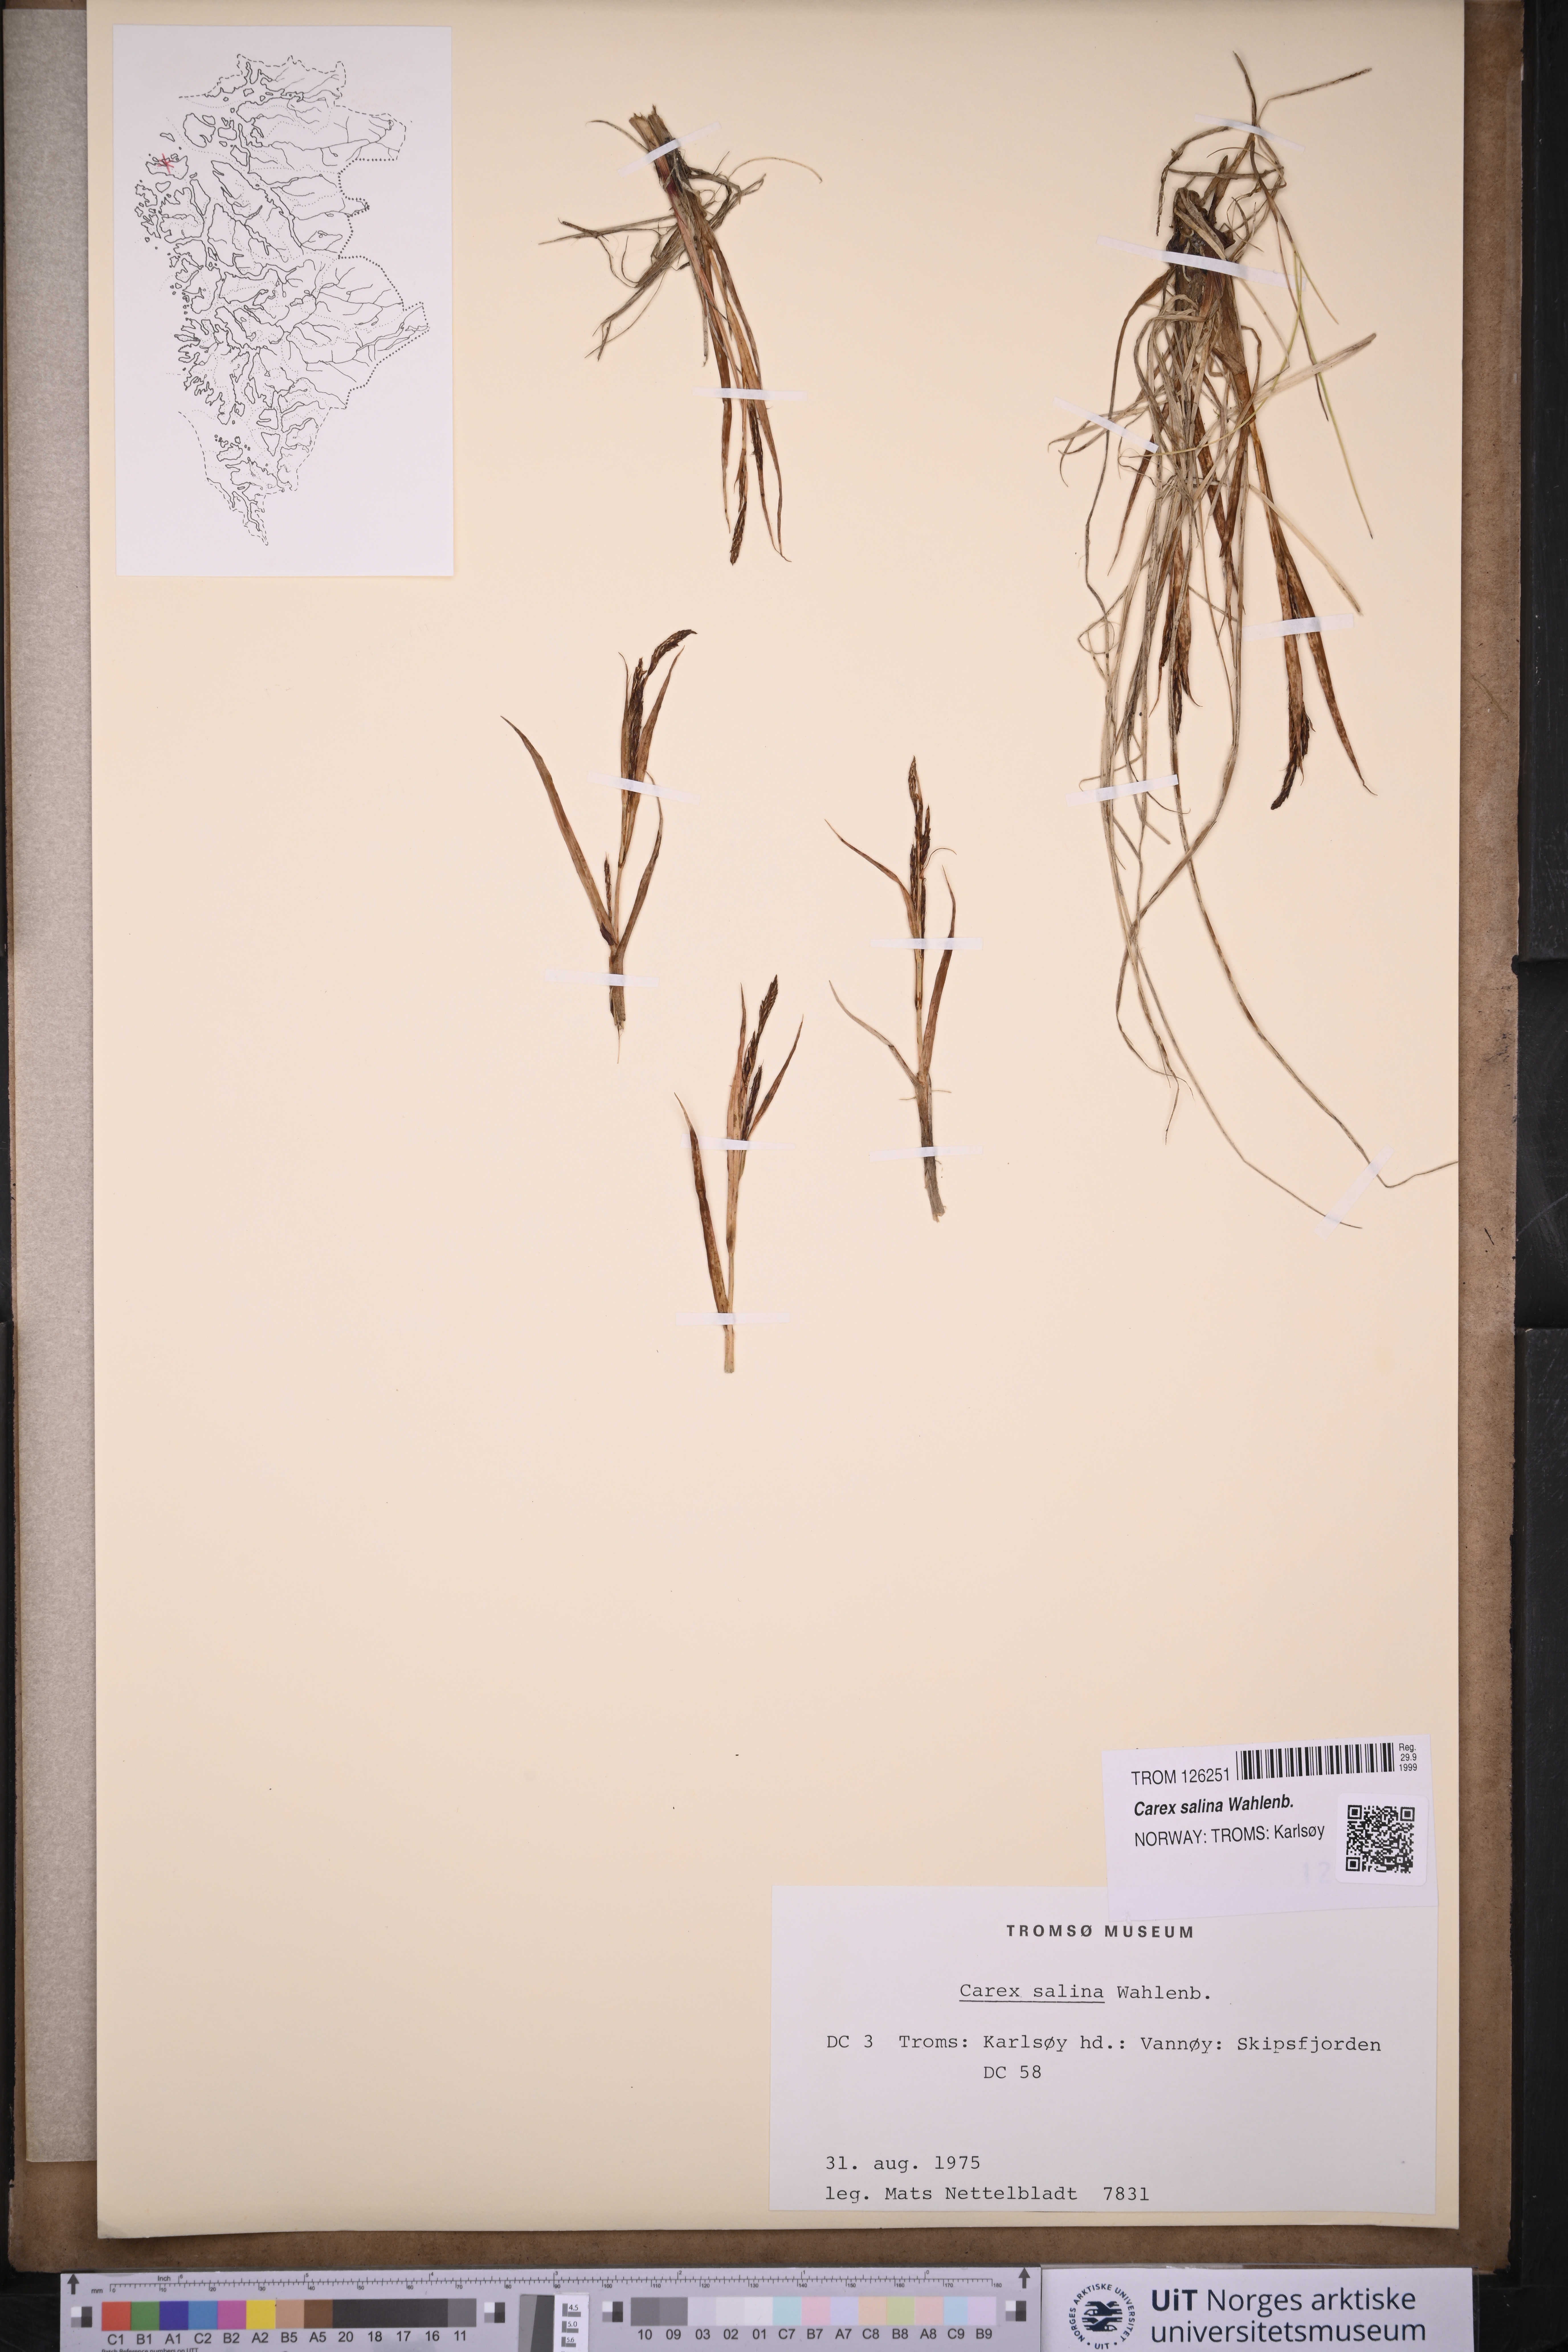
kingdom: Plantae
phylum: Tracheophyta
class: Liliopsida
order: Poales
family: Cyperaceae
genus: Carex
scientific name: Carex salina
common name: Saltmarsh sedge
